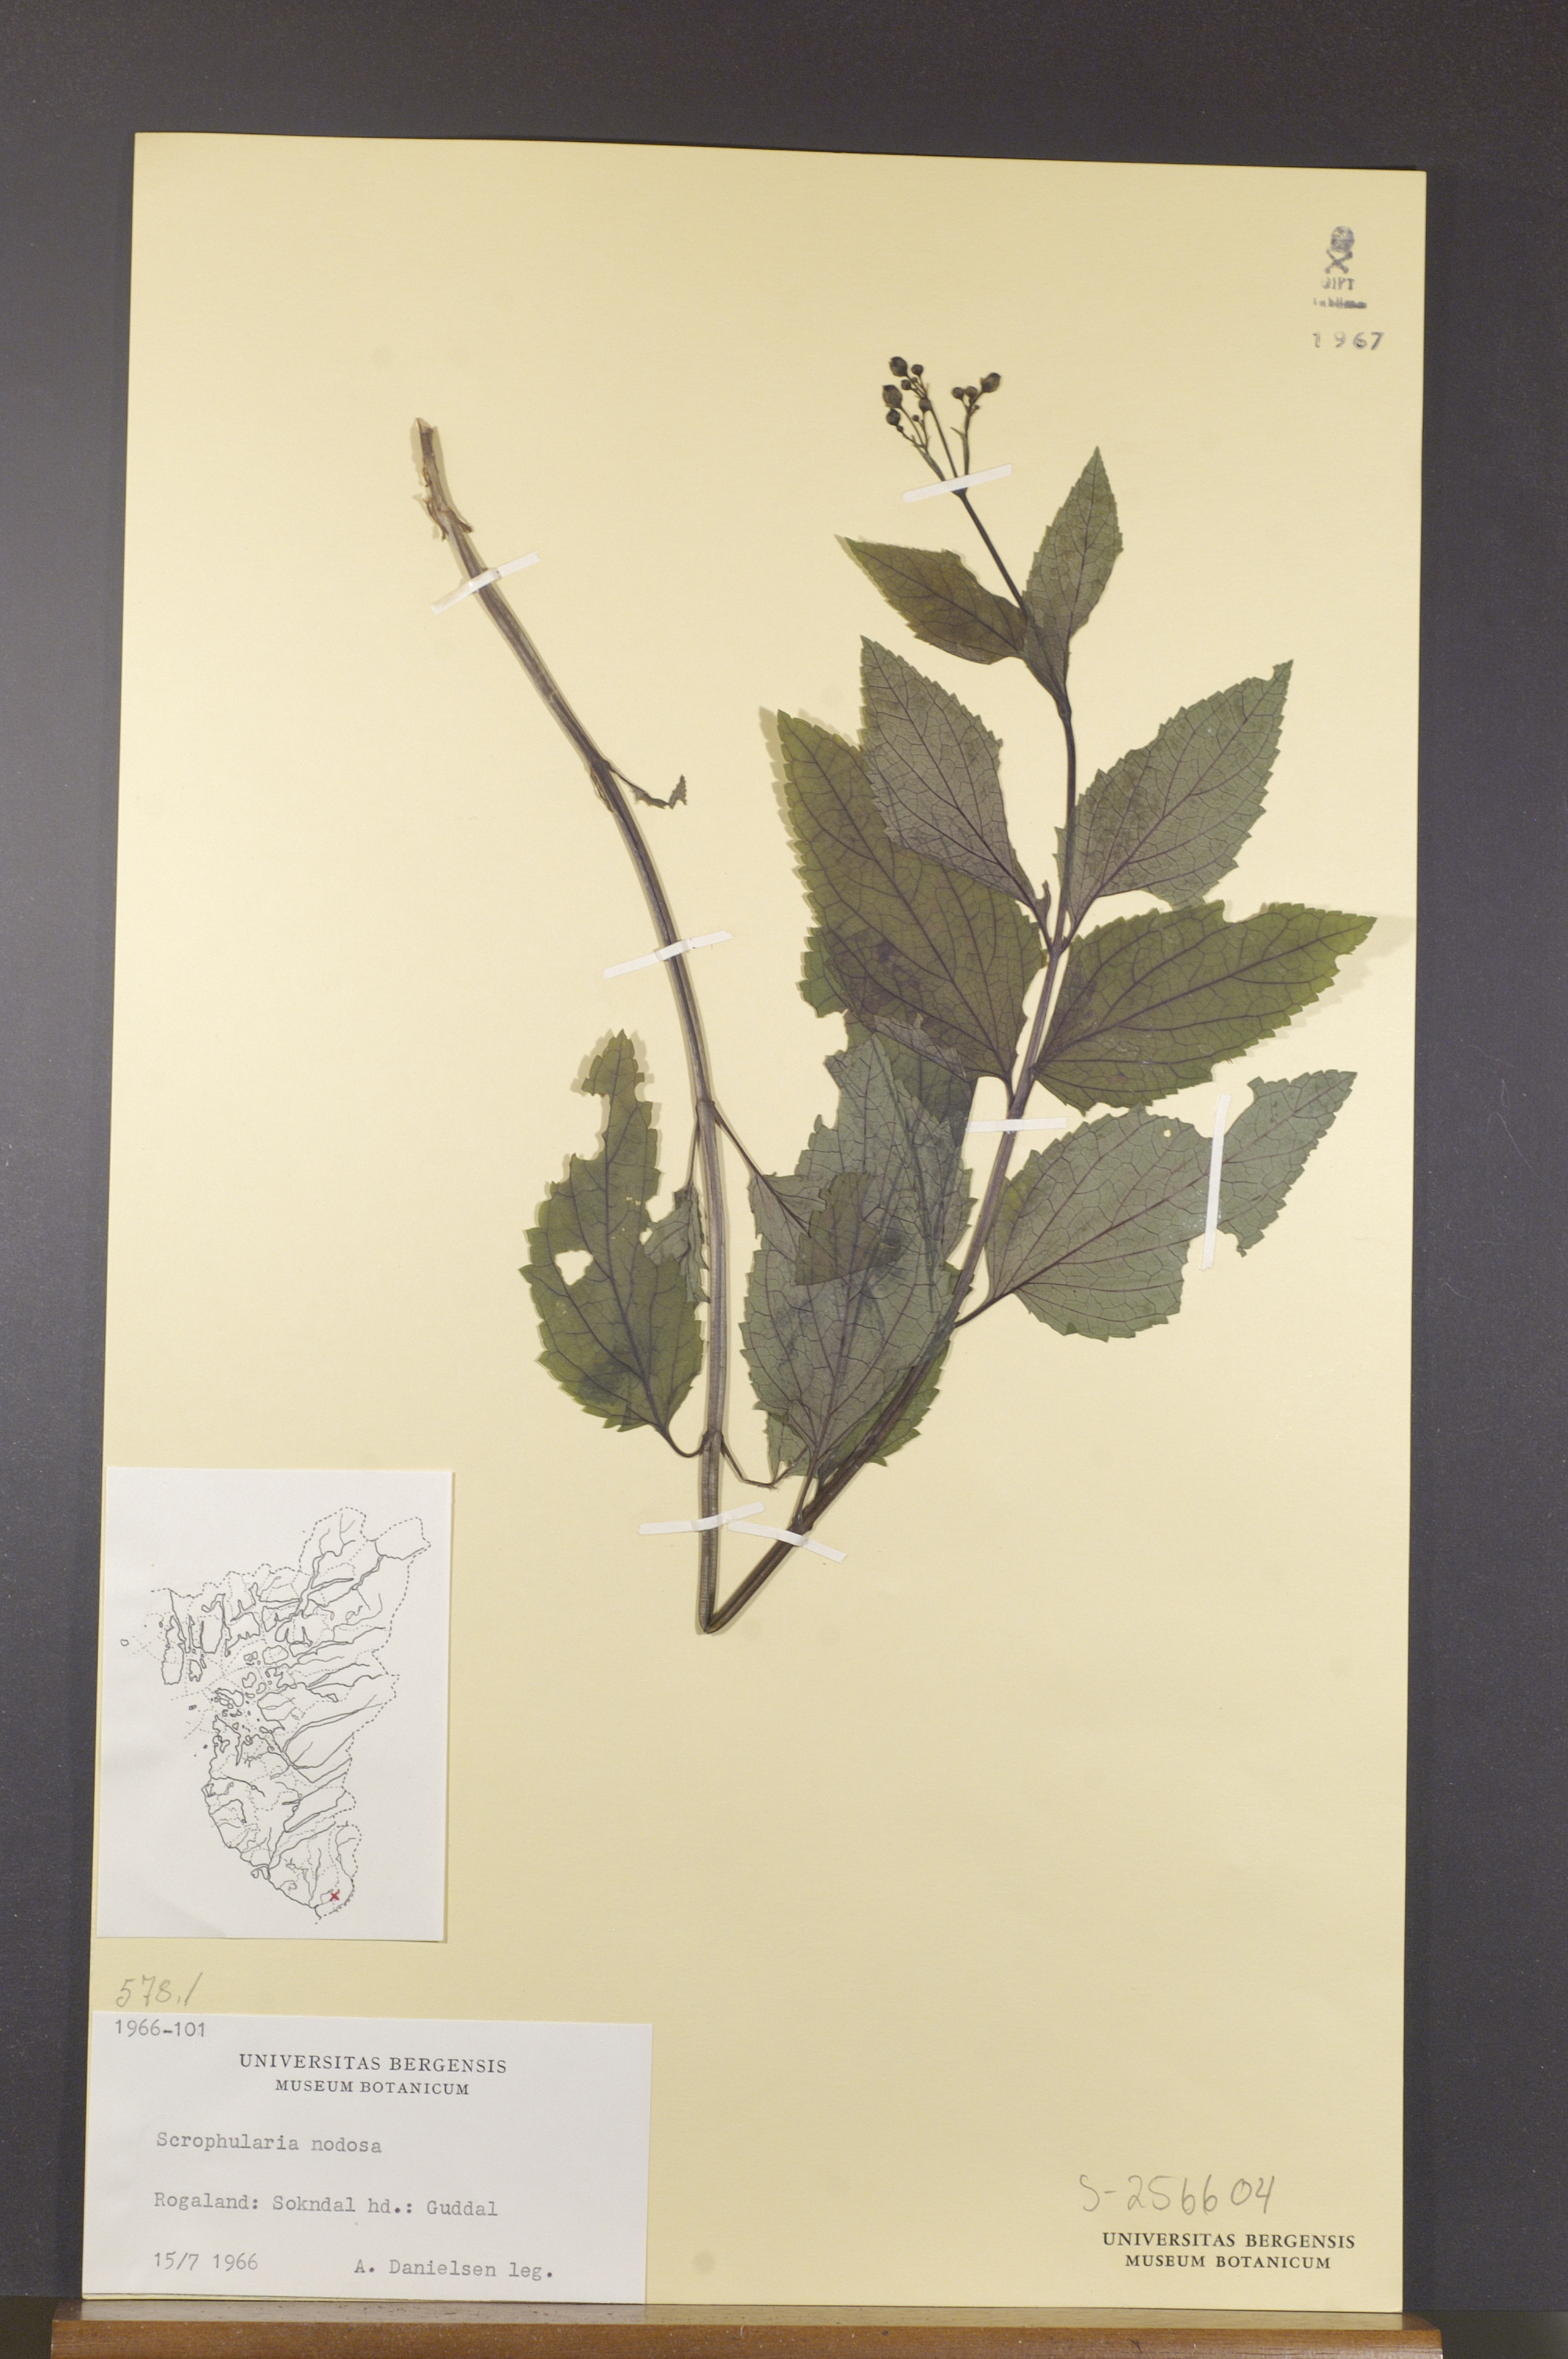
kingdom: Plantae
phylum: Tracheophyta
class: Magnoliopsida
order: Lamiales
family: Scrophulariaceae
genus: Scrophularia
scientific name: Scrophularia nodosa
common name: Common figwort
